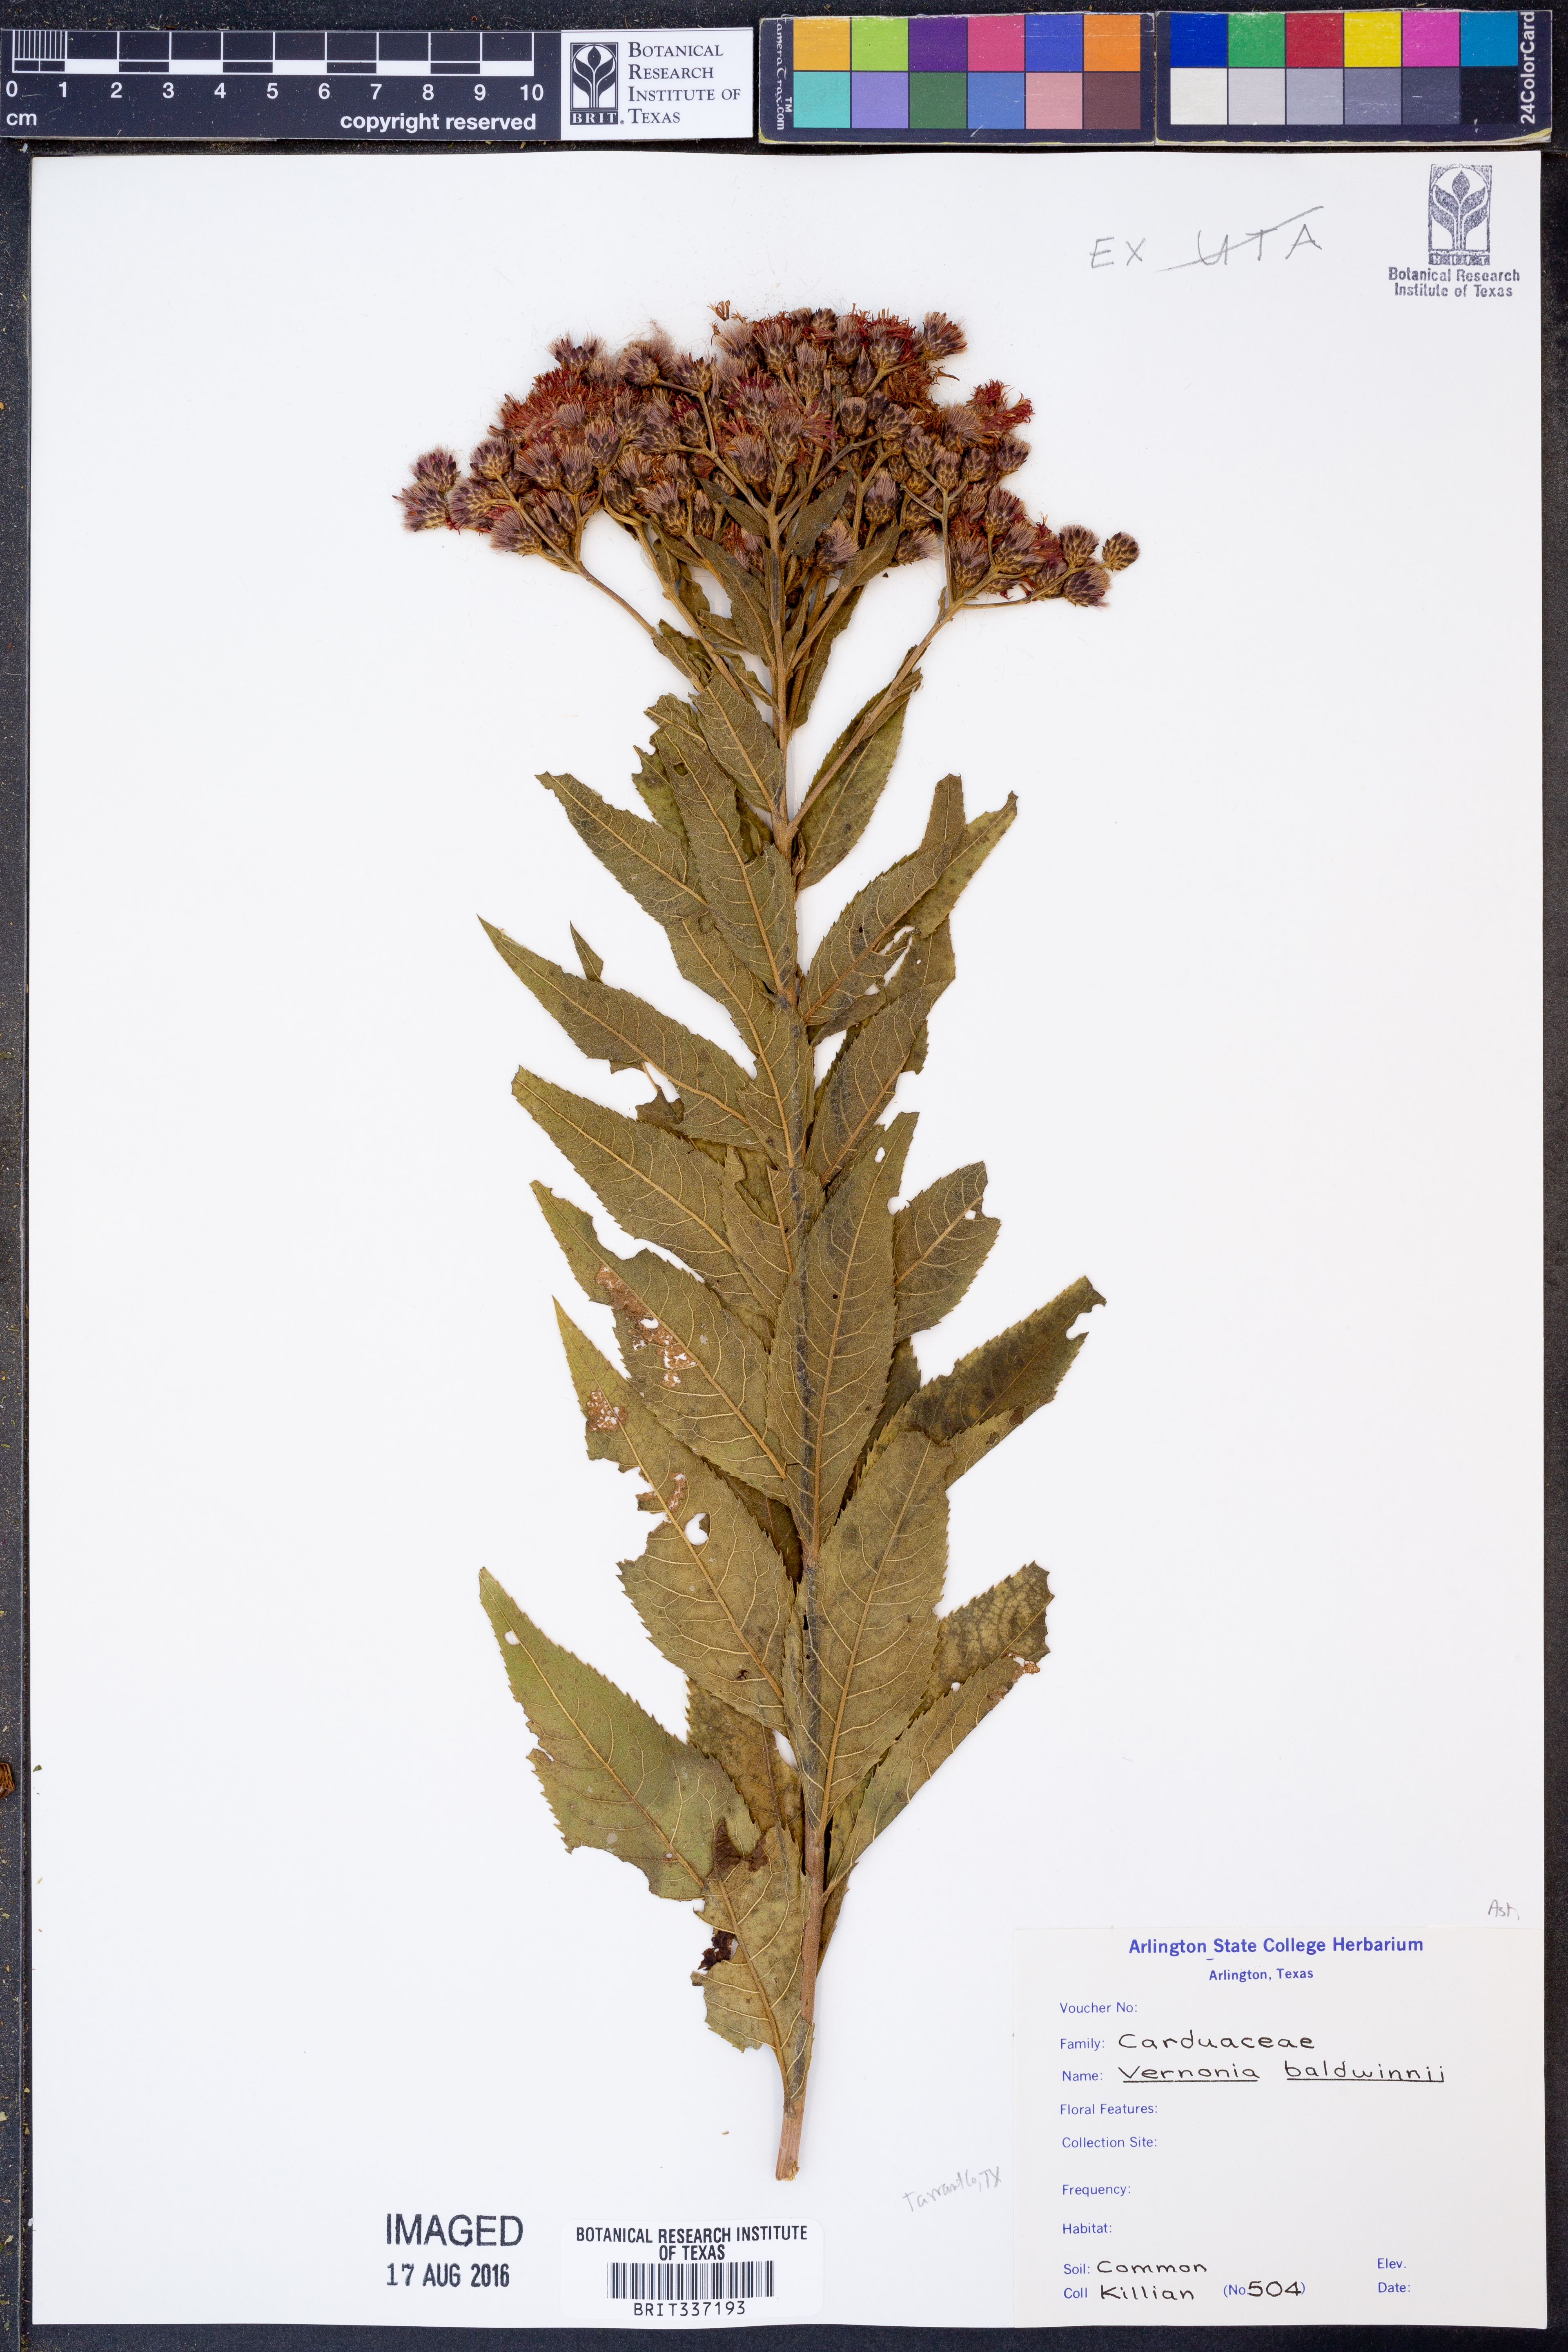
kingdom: Plantae
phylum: Tracheophyta
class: Magnoliopsida
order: Asterales
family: Asteraceae
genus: Vernonia
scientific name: Vernonia baldwinii
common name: Western ironweed
